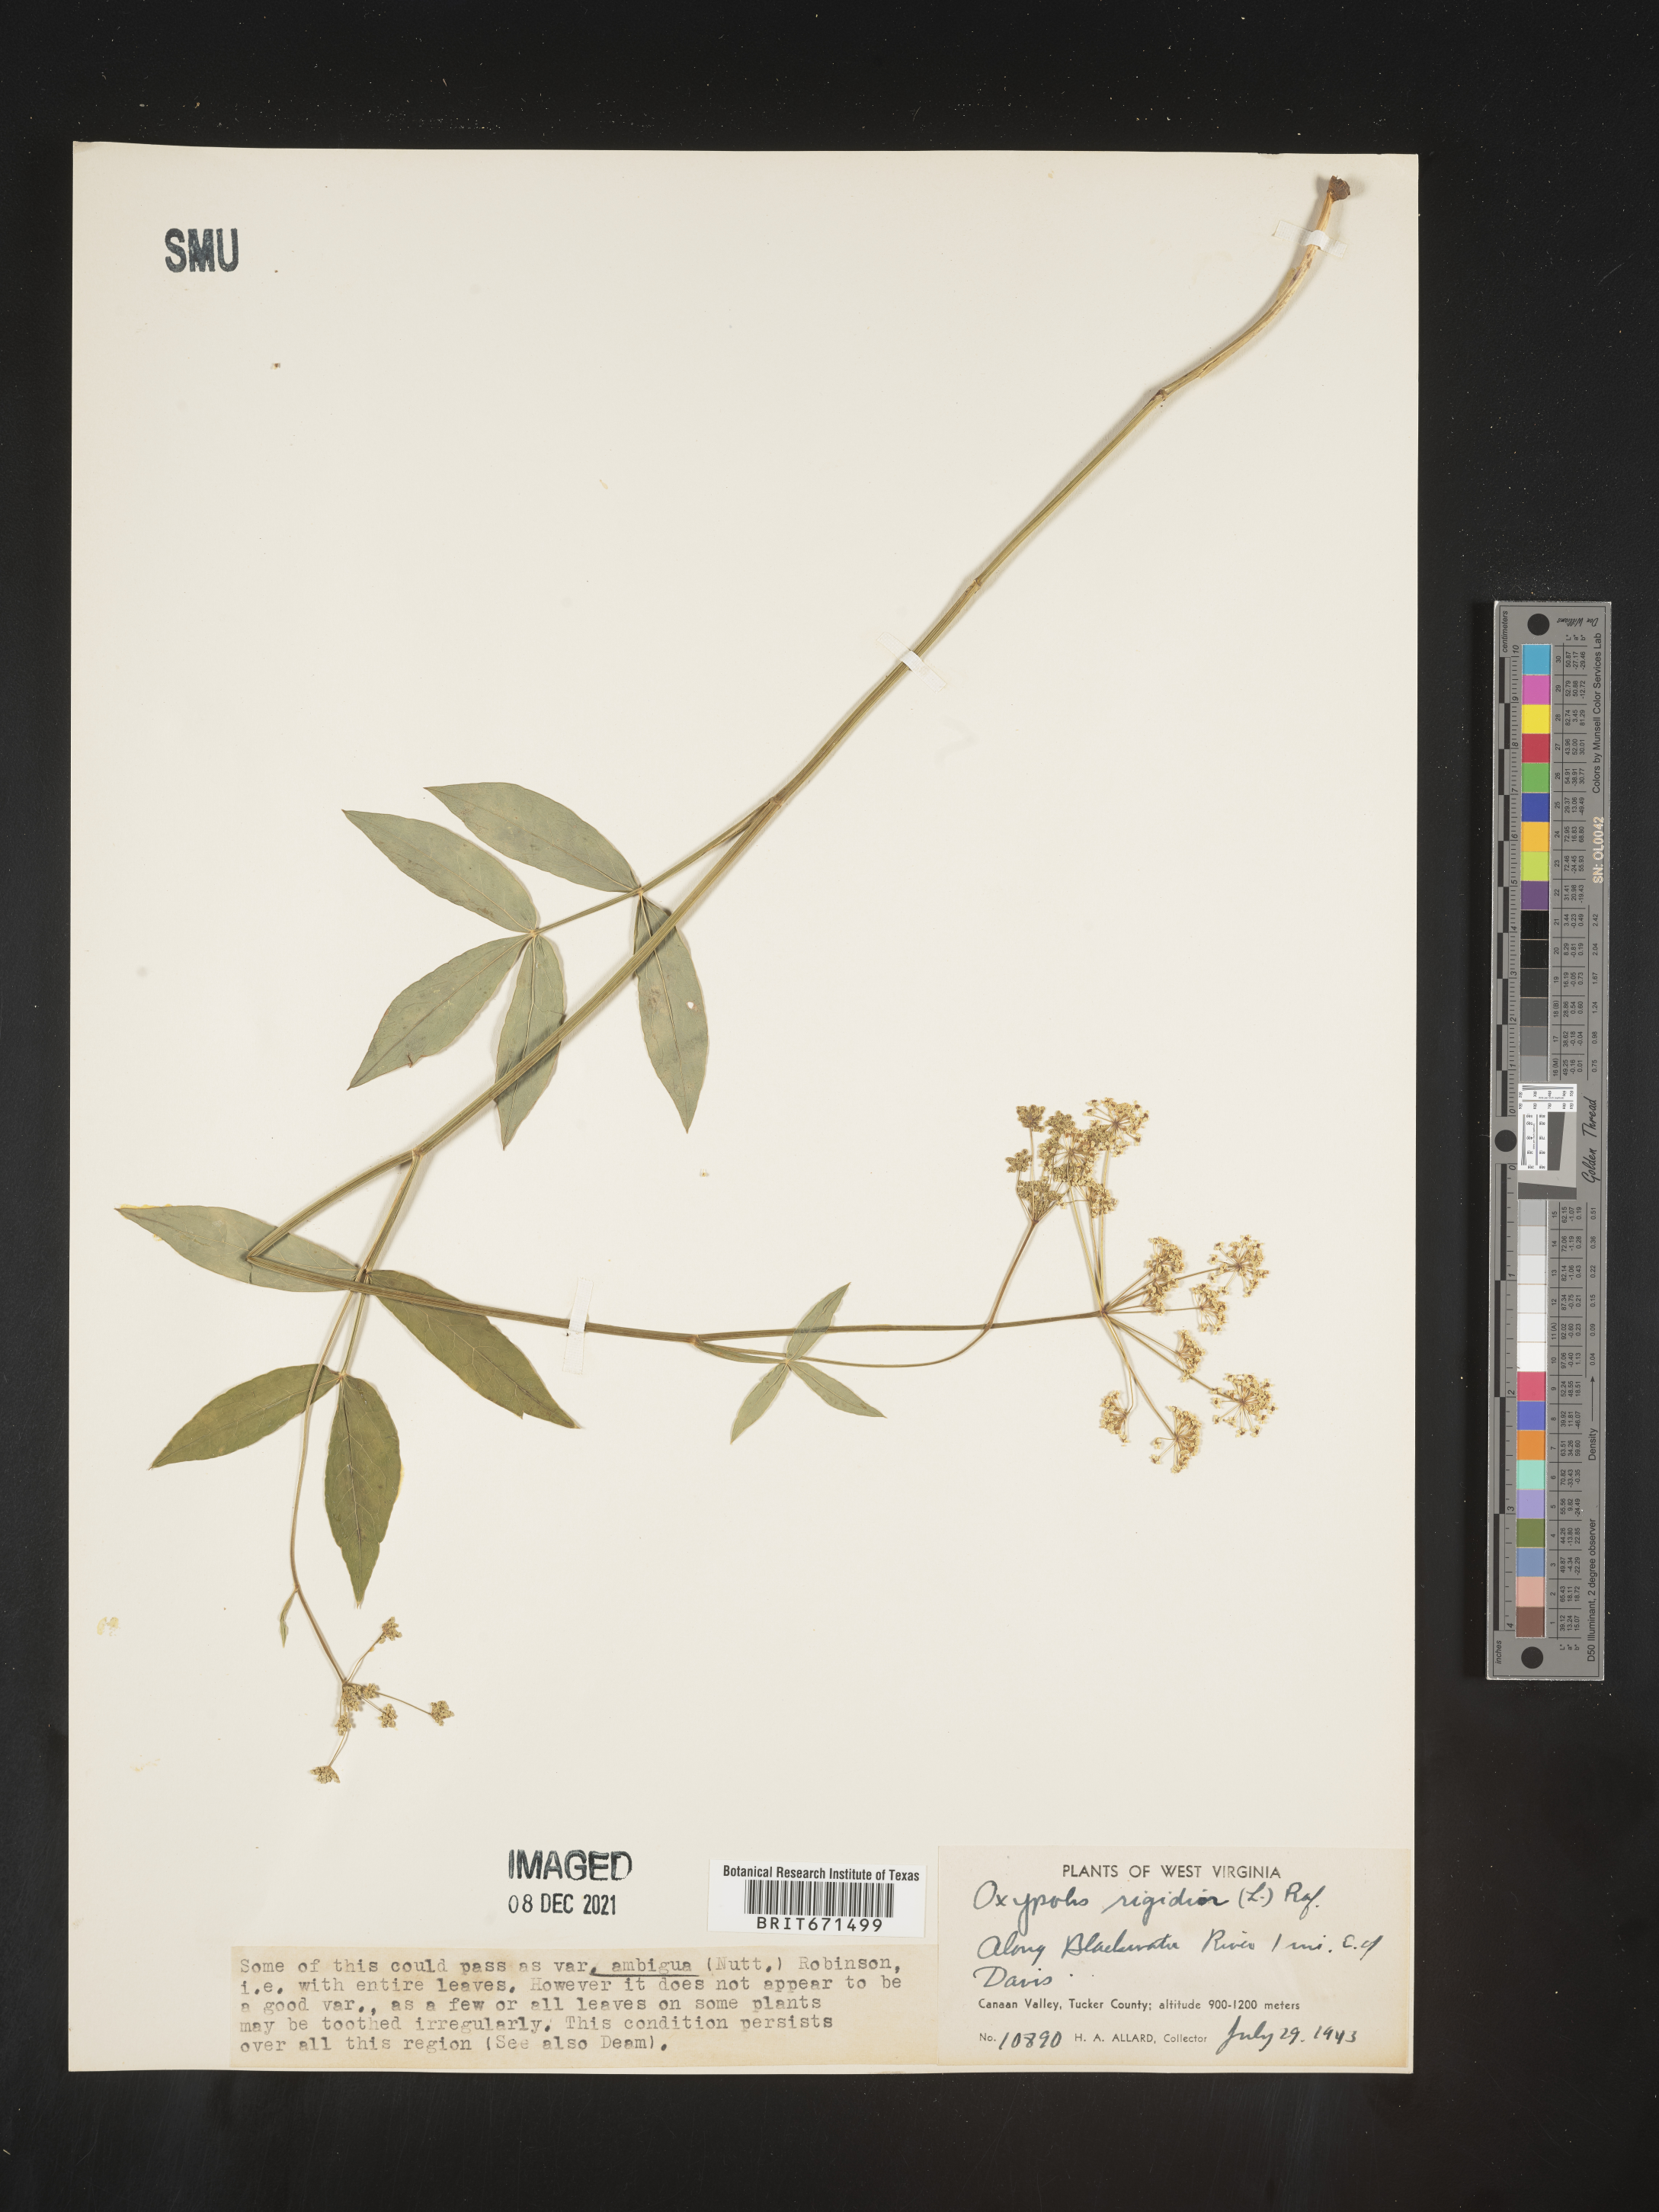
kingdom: Plantae
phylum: Tracheophyta
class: Magnoliopsida
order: Apiales
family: Apiaceae
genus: Oxypolis
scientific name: Oxypolis rigidior
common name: Cowbane
